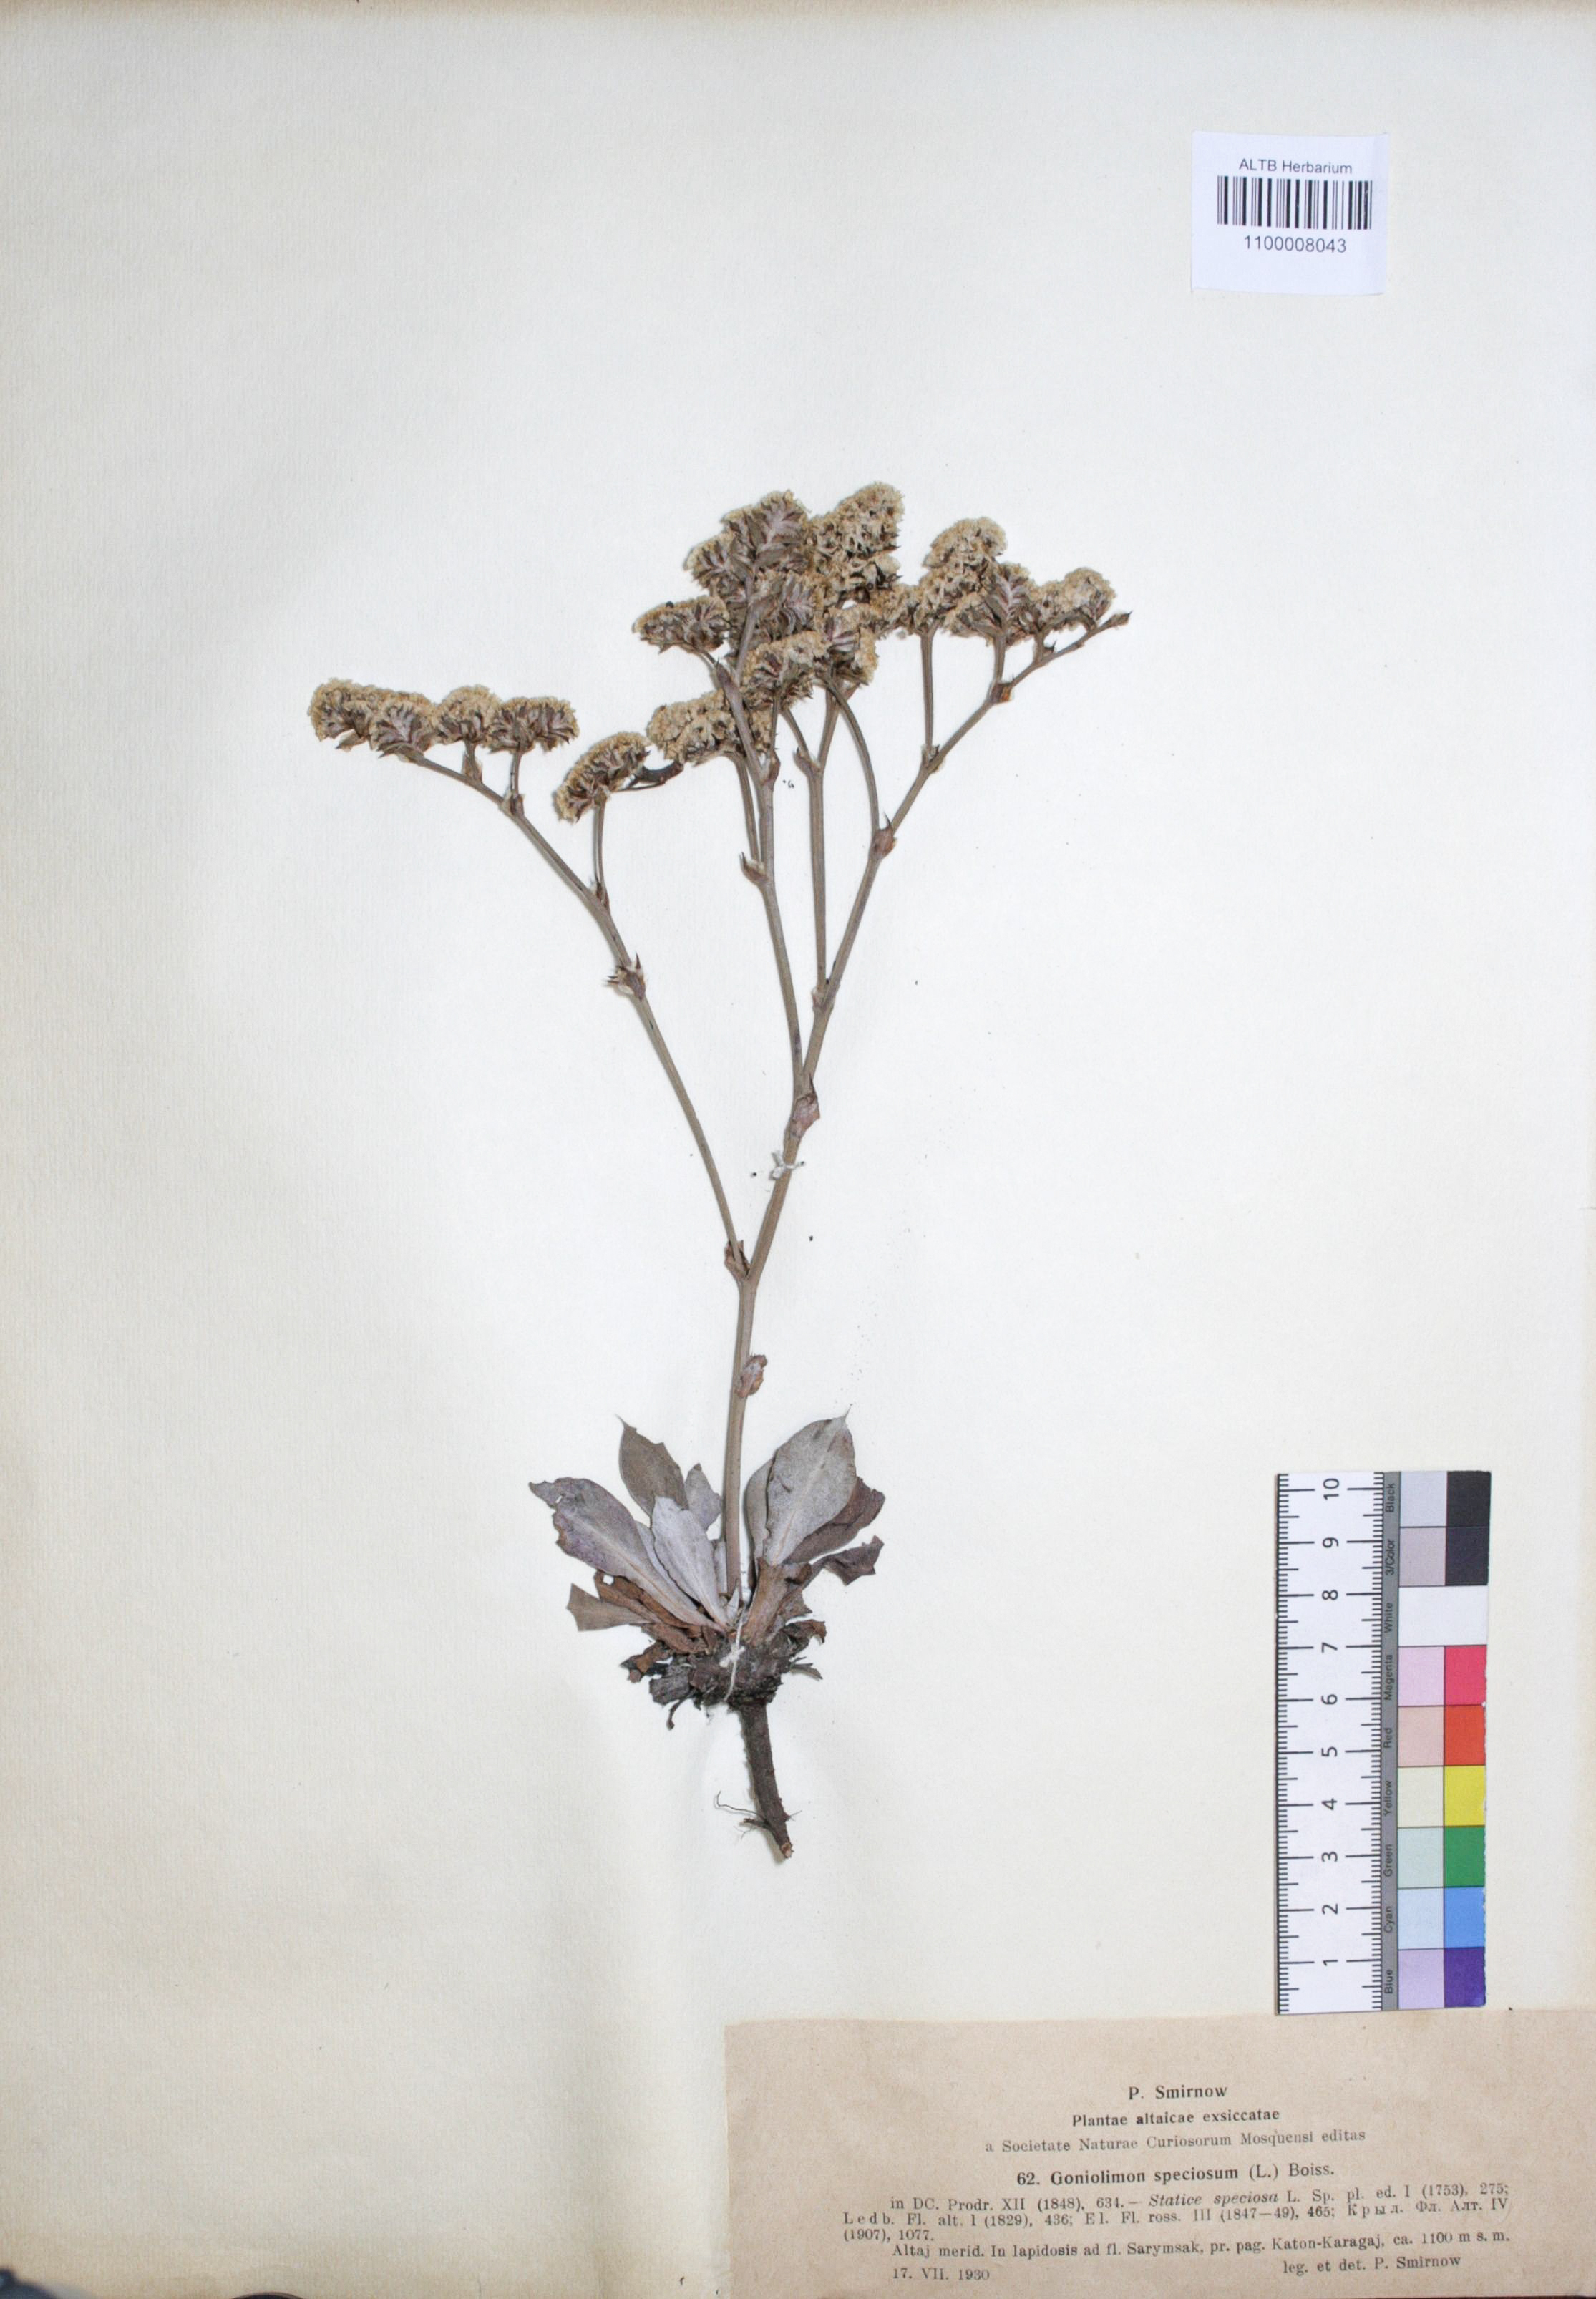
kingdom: Plantae
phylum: Tracheophyta
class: Magnoliopsida
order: Caryophyllales
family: Plumbaginaceae
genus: Goniolimon
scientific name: Goniolimon speciosum
